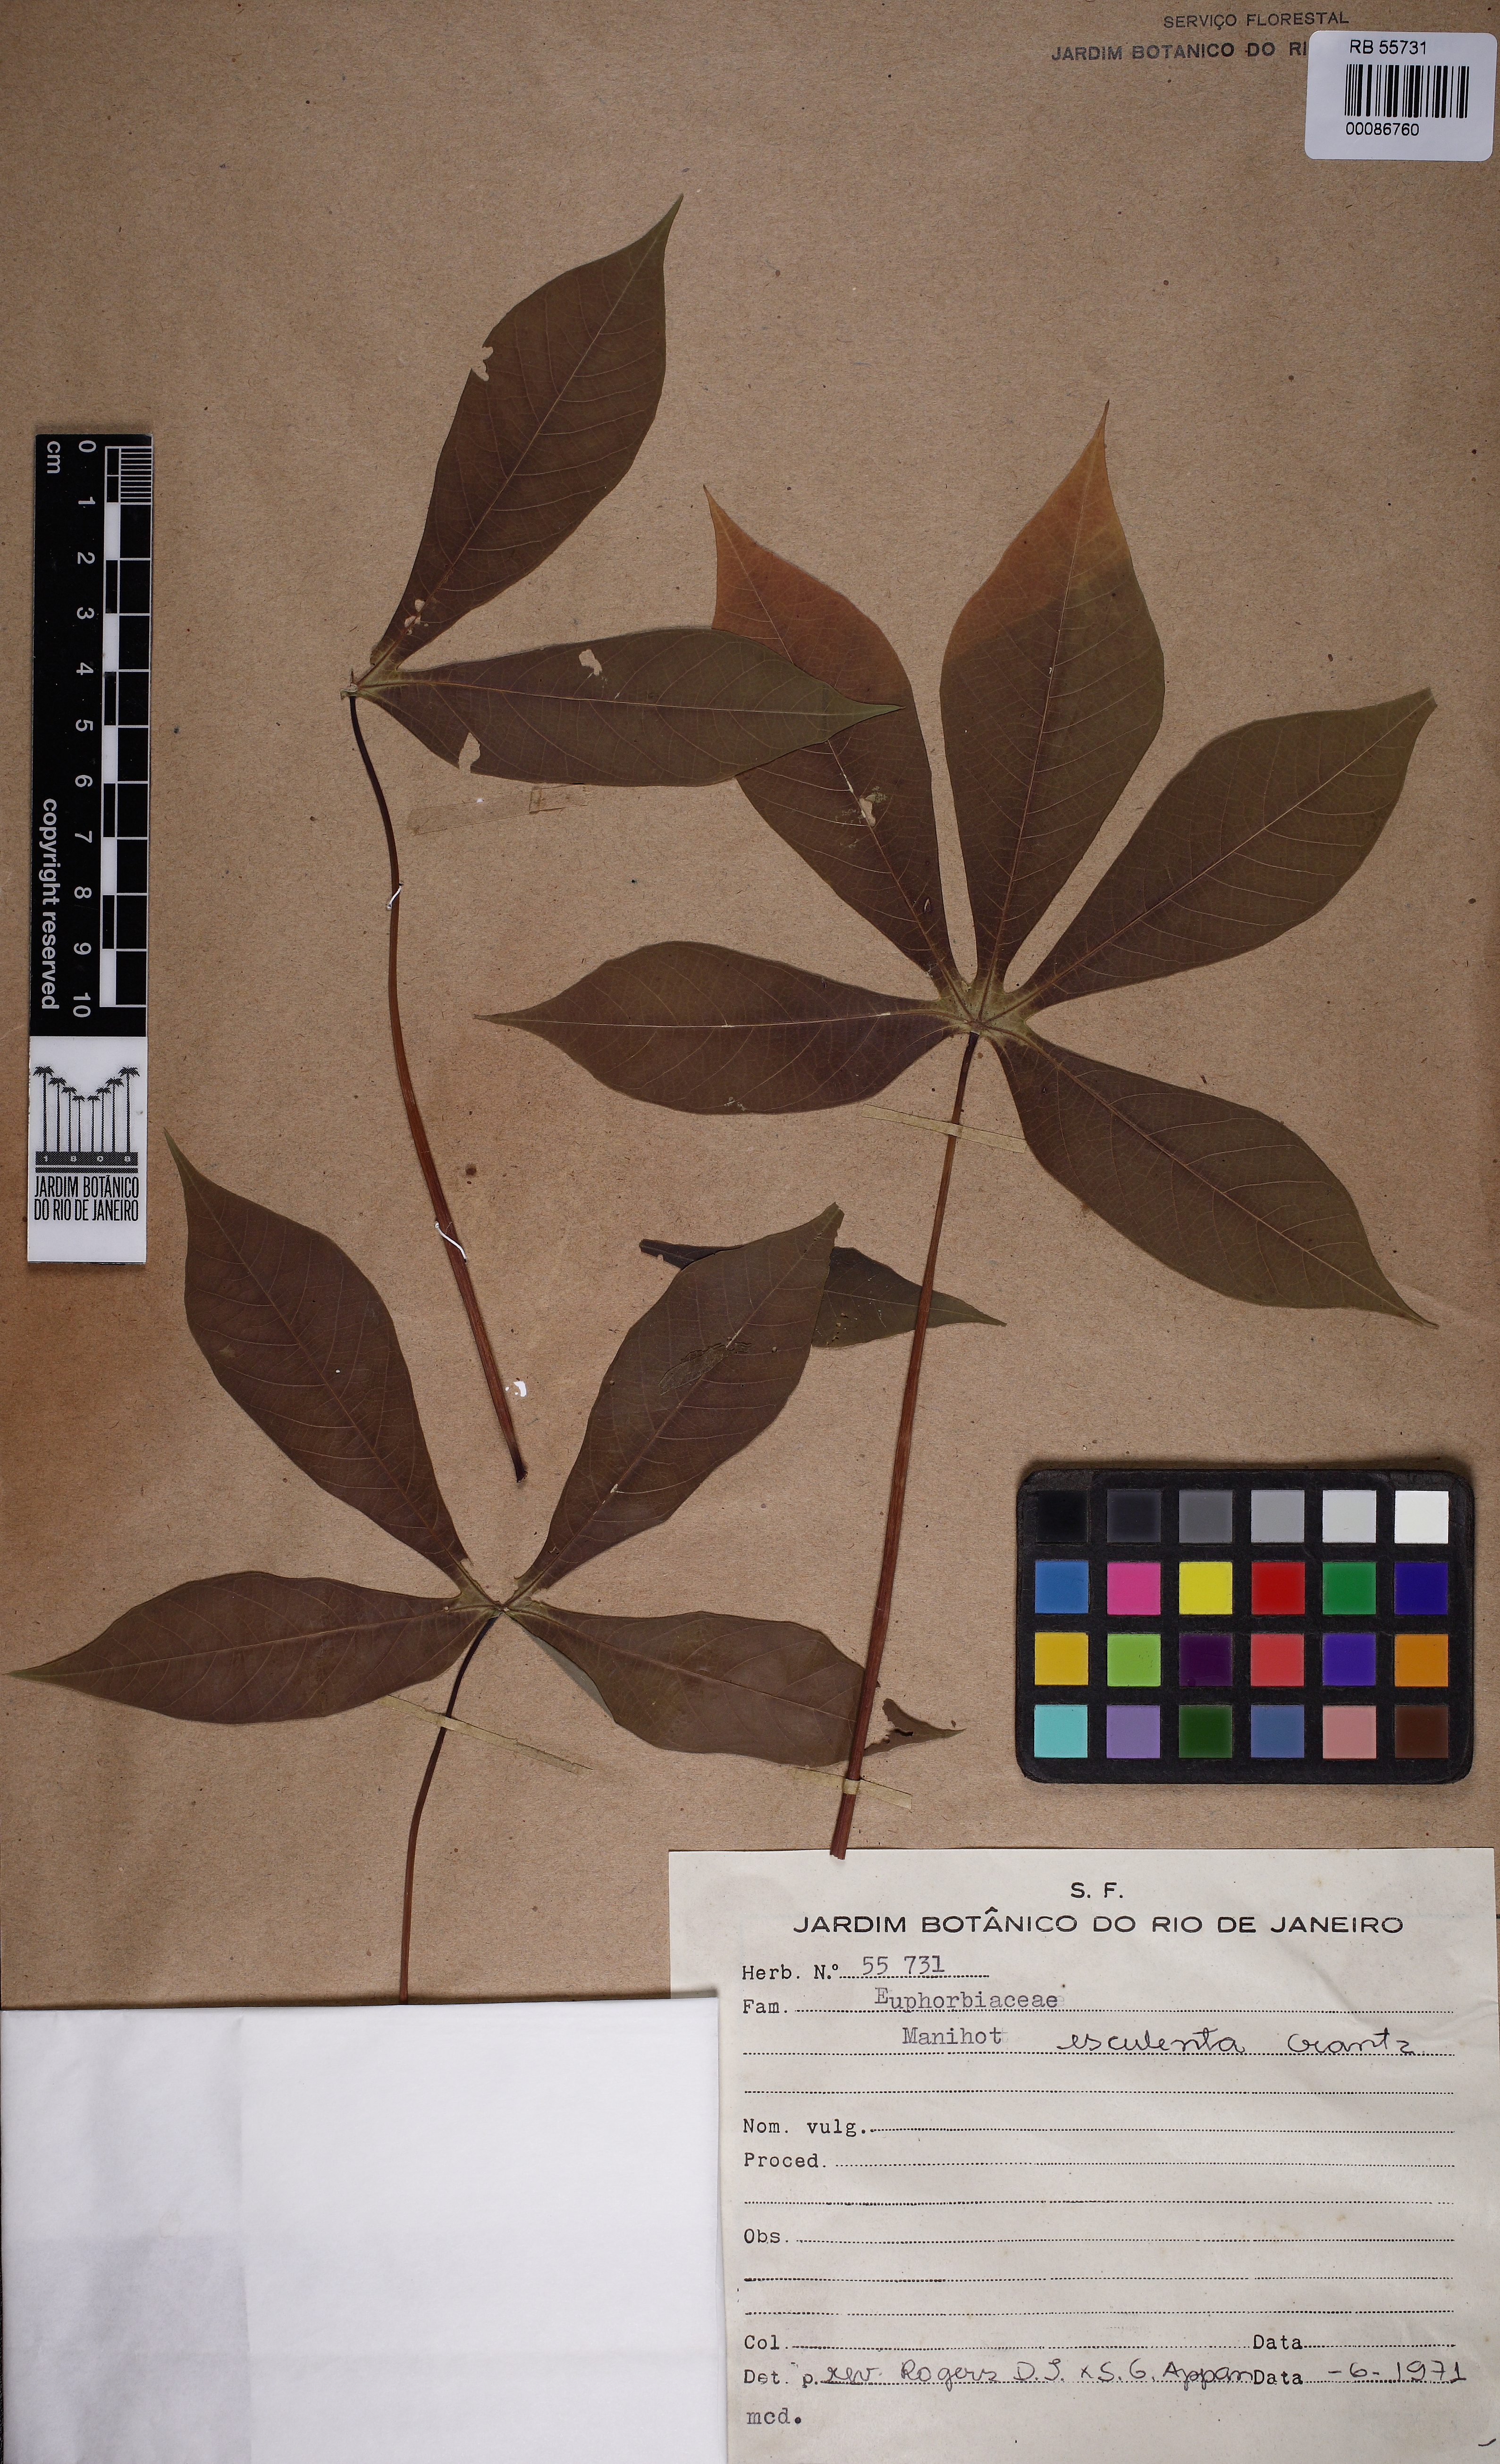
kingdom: Plantae
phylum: Tracheophyta
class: Magnoliopsida
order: Malpighiales
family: Euphorbiaceae
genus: Manihot
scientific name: Manihot esculenta
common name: Cassava
